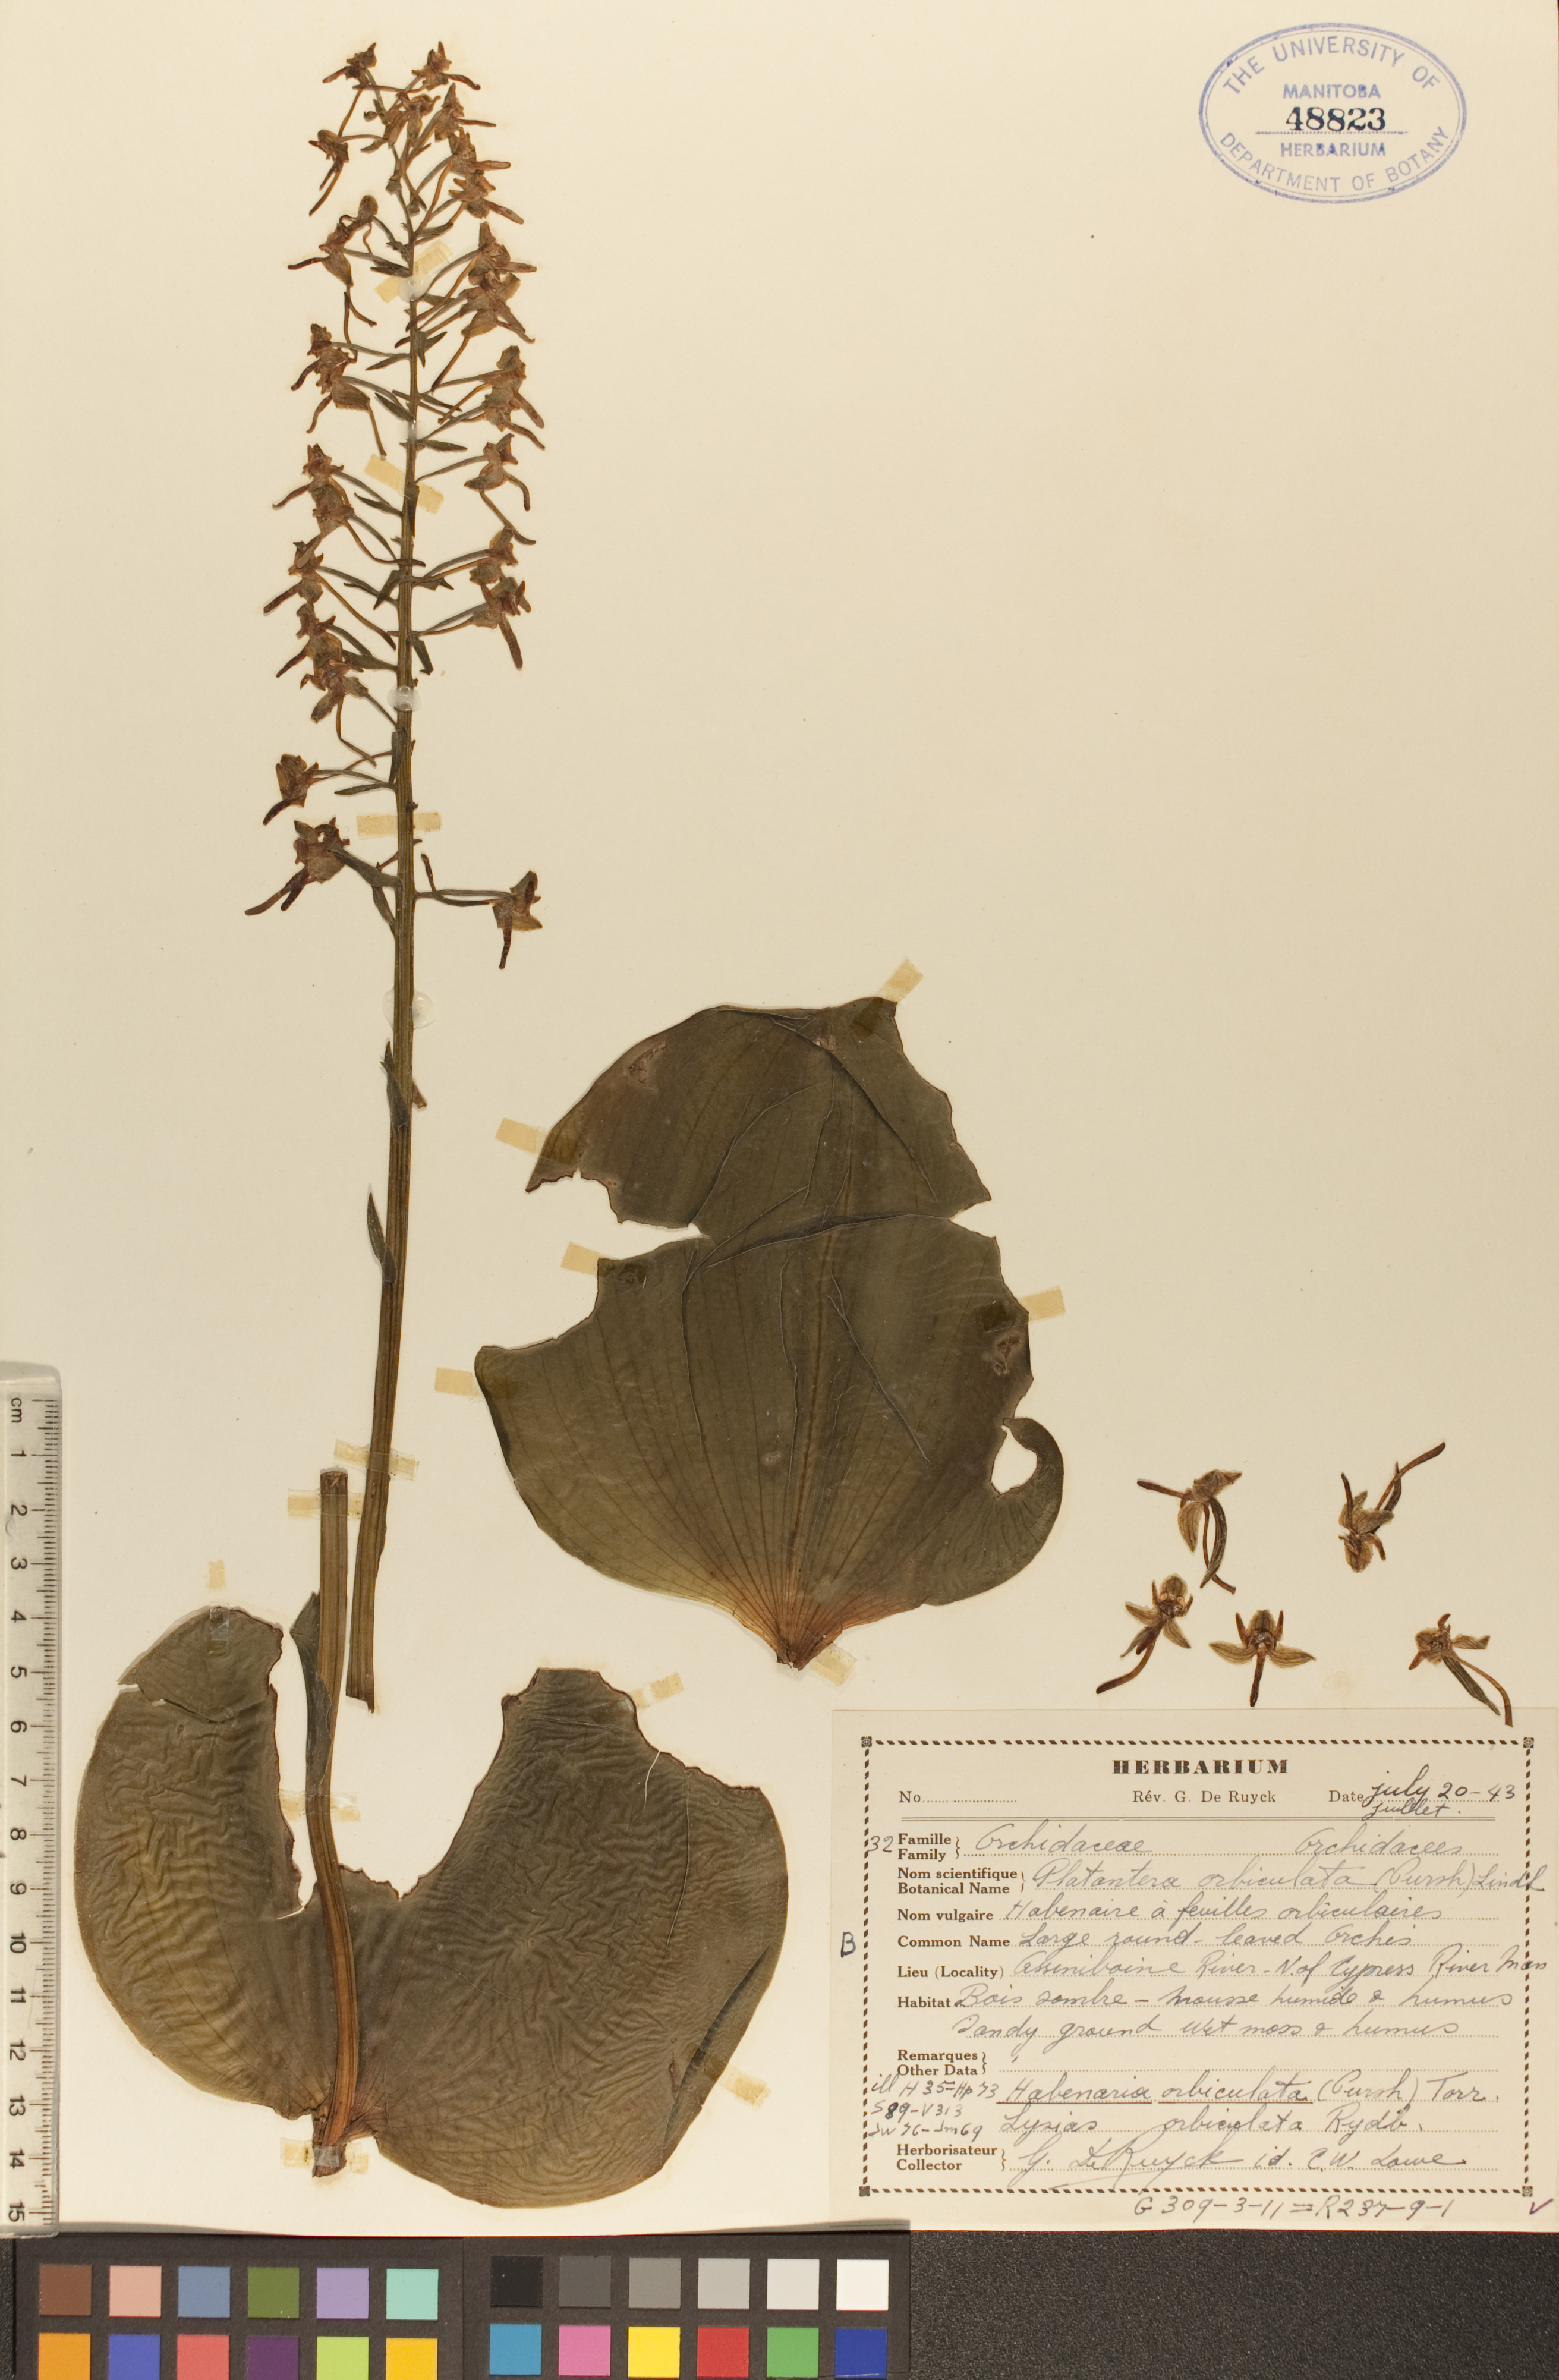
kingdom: Plantae
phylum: Tracheophyta
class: Liliopsida
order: Asparagales
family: Orchidaceae
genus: Platanthera
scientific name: Platanthera orbiculata
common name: Large round-leaved orchid
